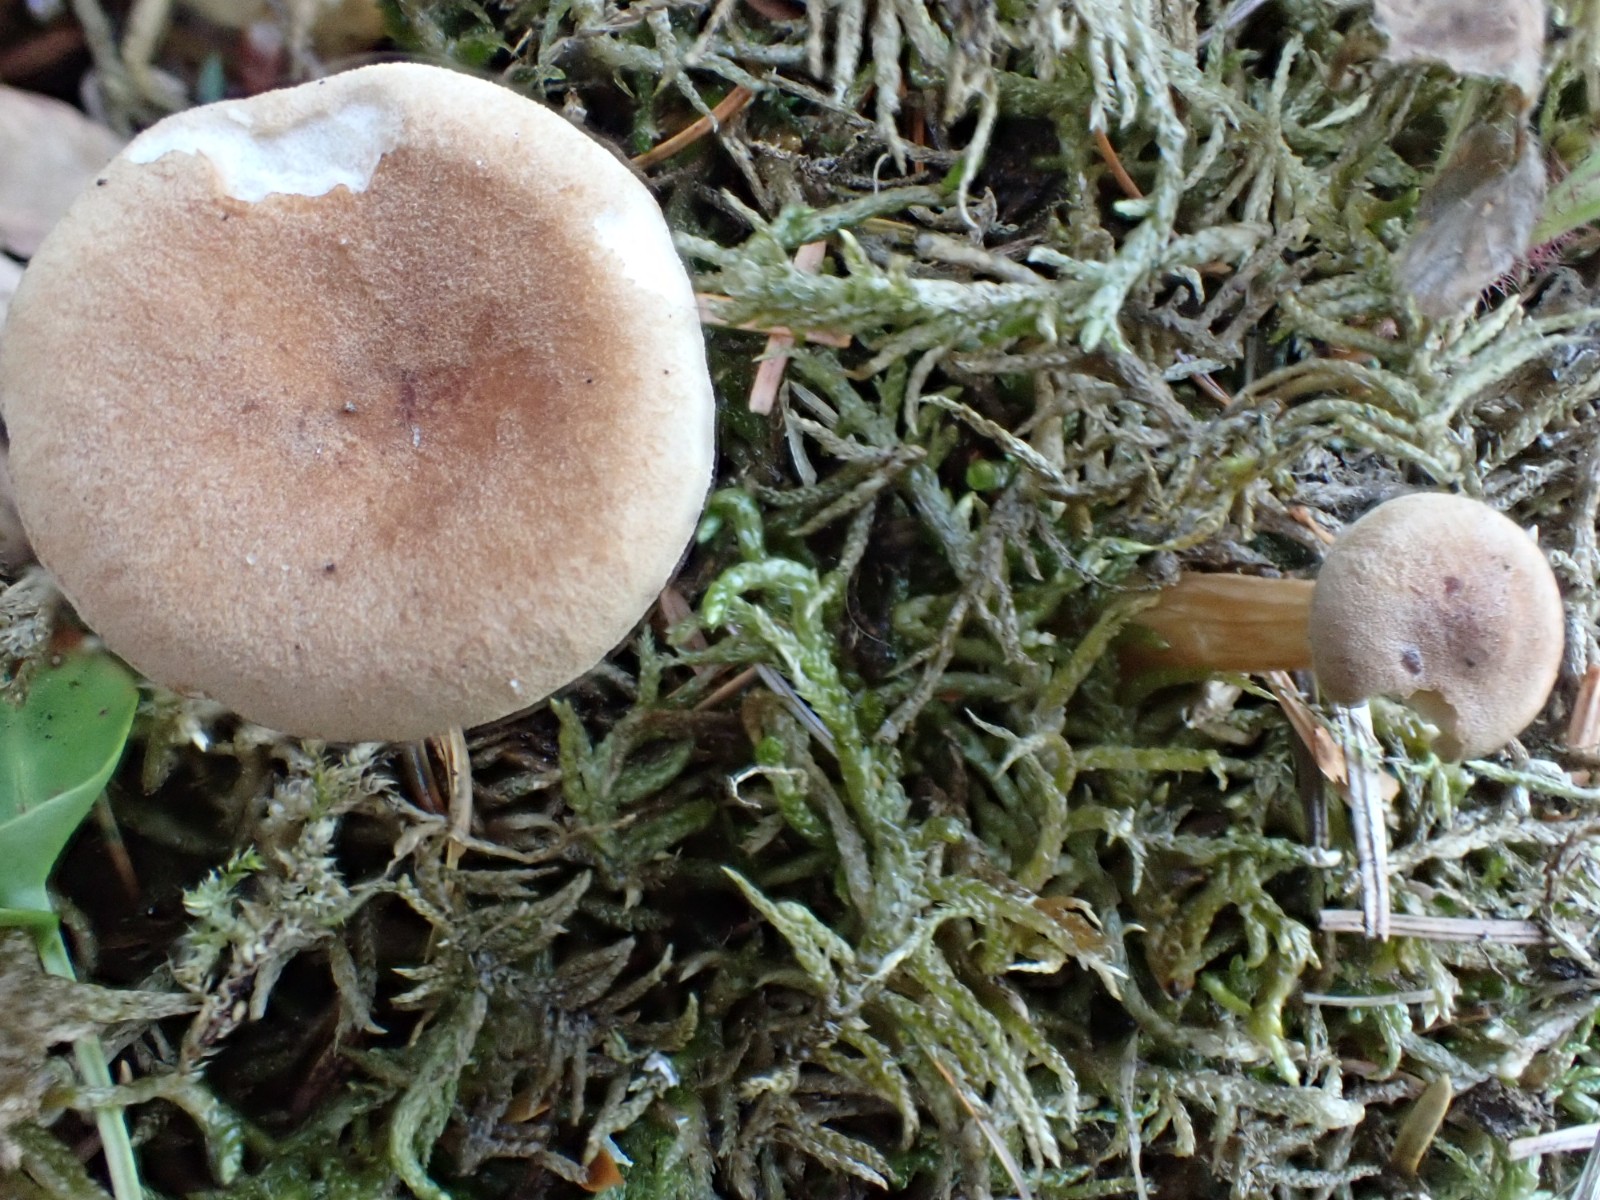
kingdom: Fungi
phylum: Basidiomycota
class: Agaricomycetes
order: Agaricales
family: Tricholomataceae
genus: Infundibulicybe
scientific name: Infundibulicybe squamulosa
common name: småskællet tragthat
